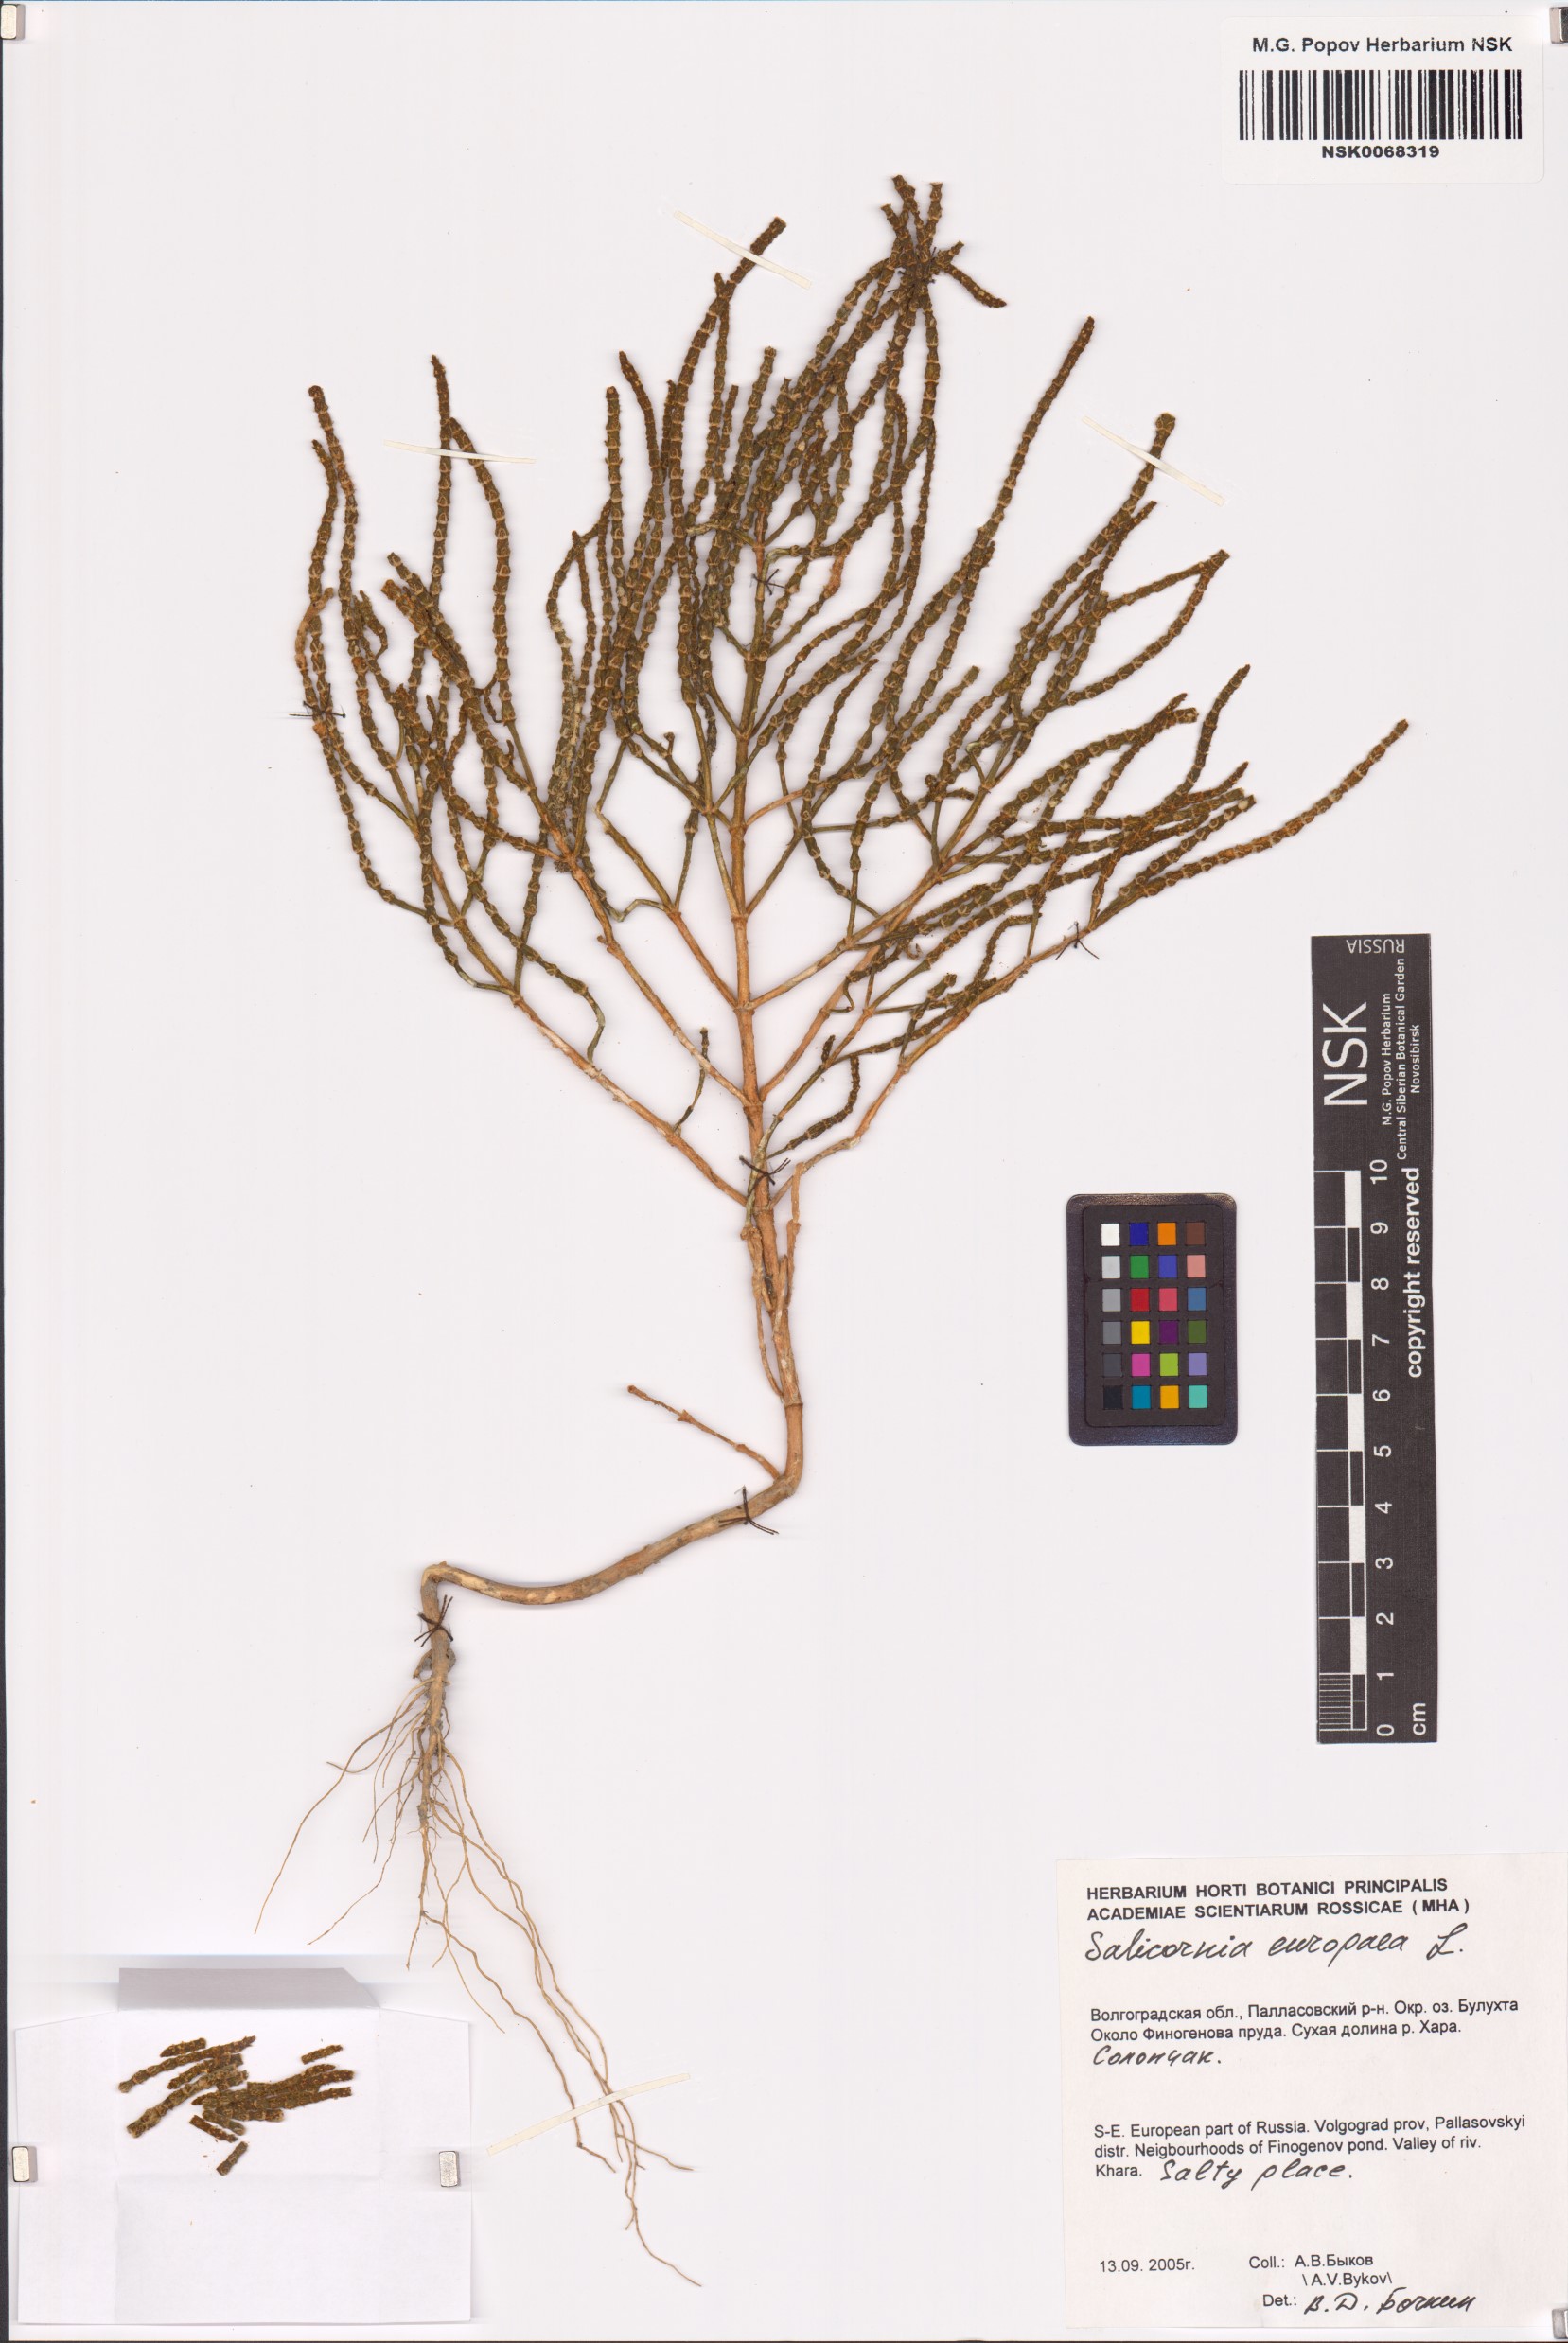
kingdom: Plantae
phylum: Tracheophyta
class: Magnoliopsida
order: Caryophyllales
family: Amaranthaceae
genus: Salicornia
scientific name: Salicornia europaea
